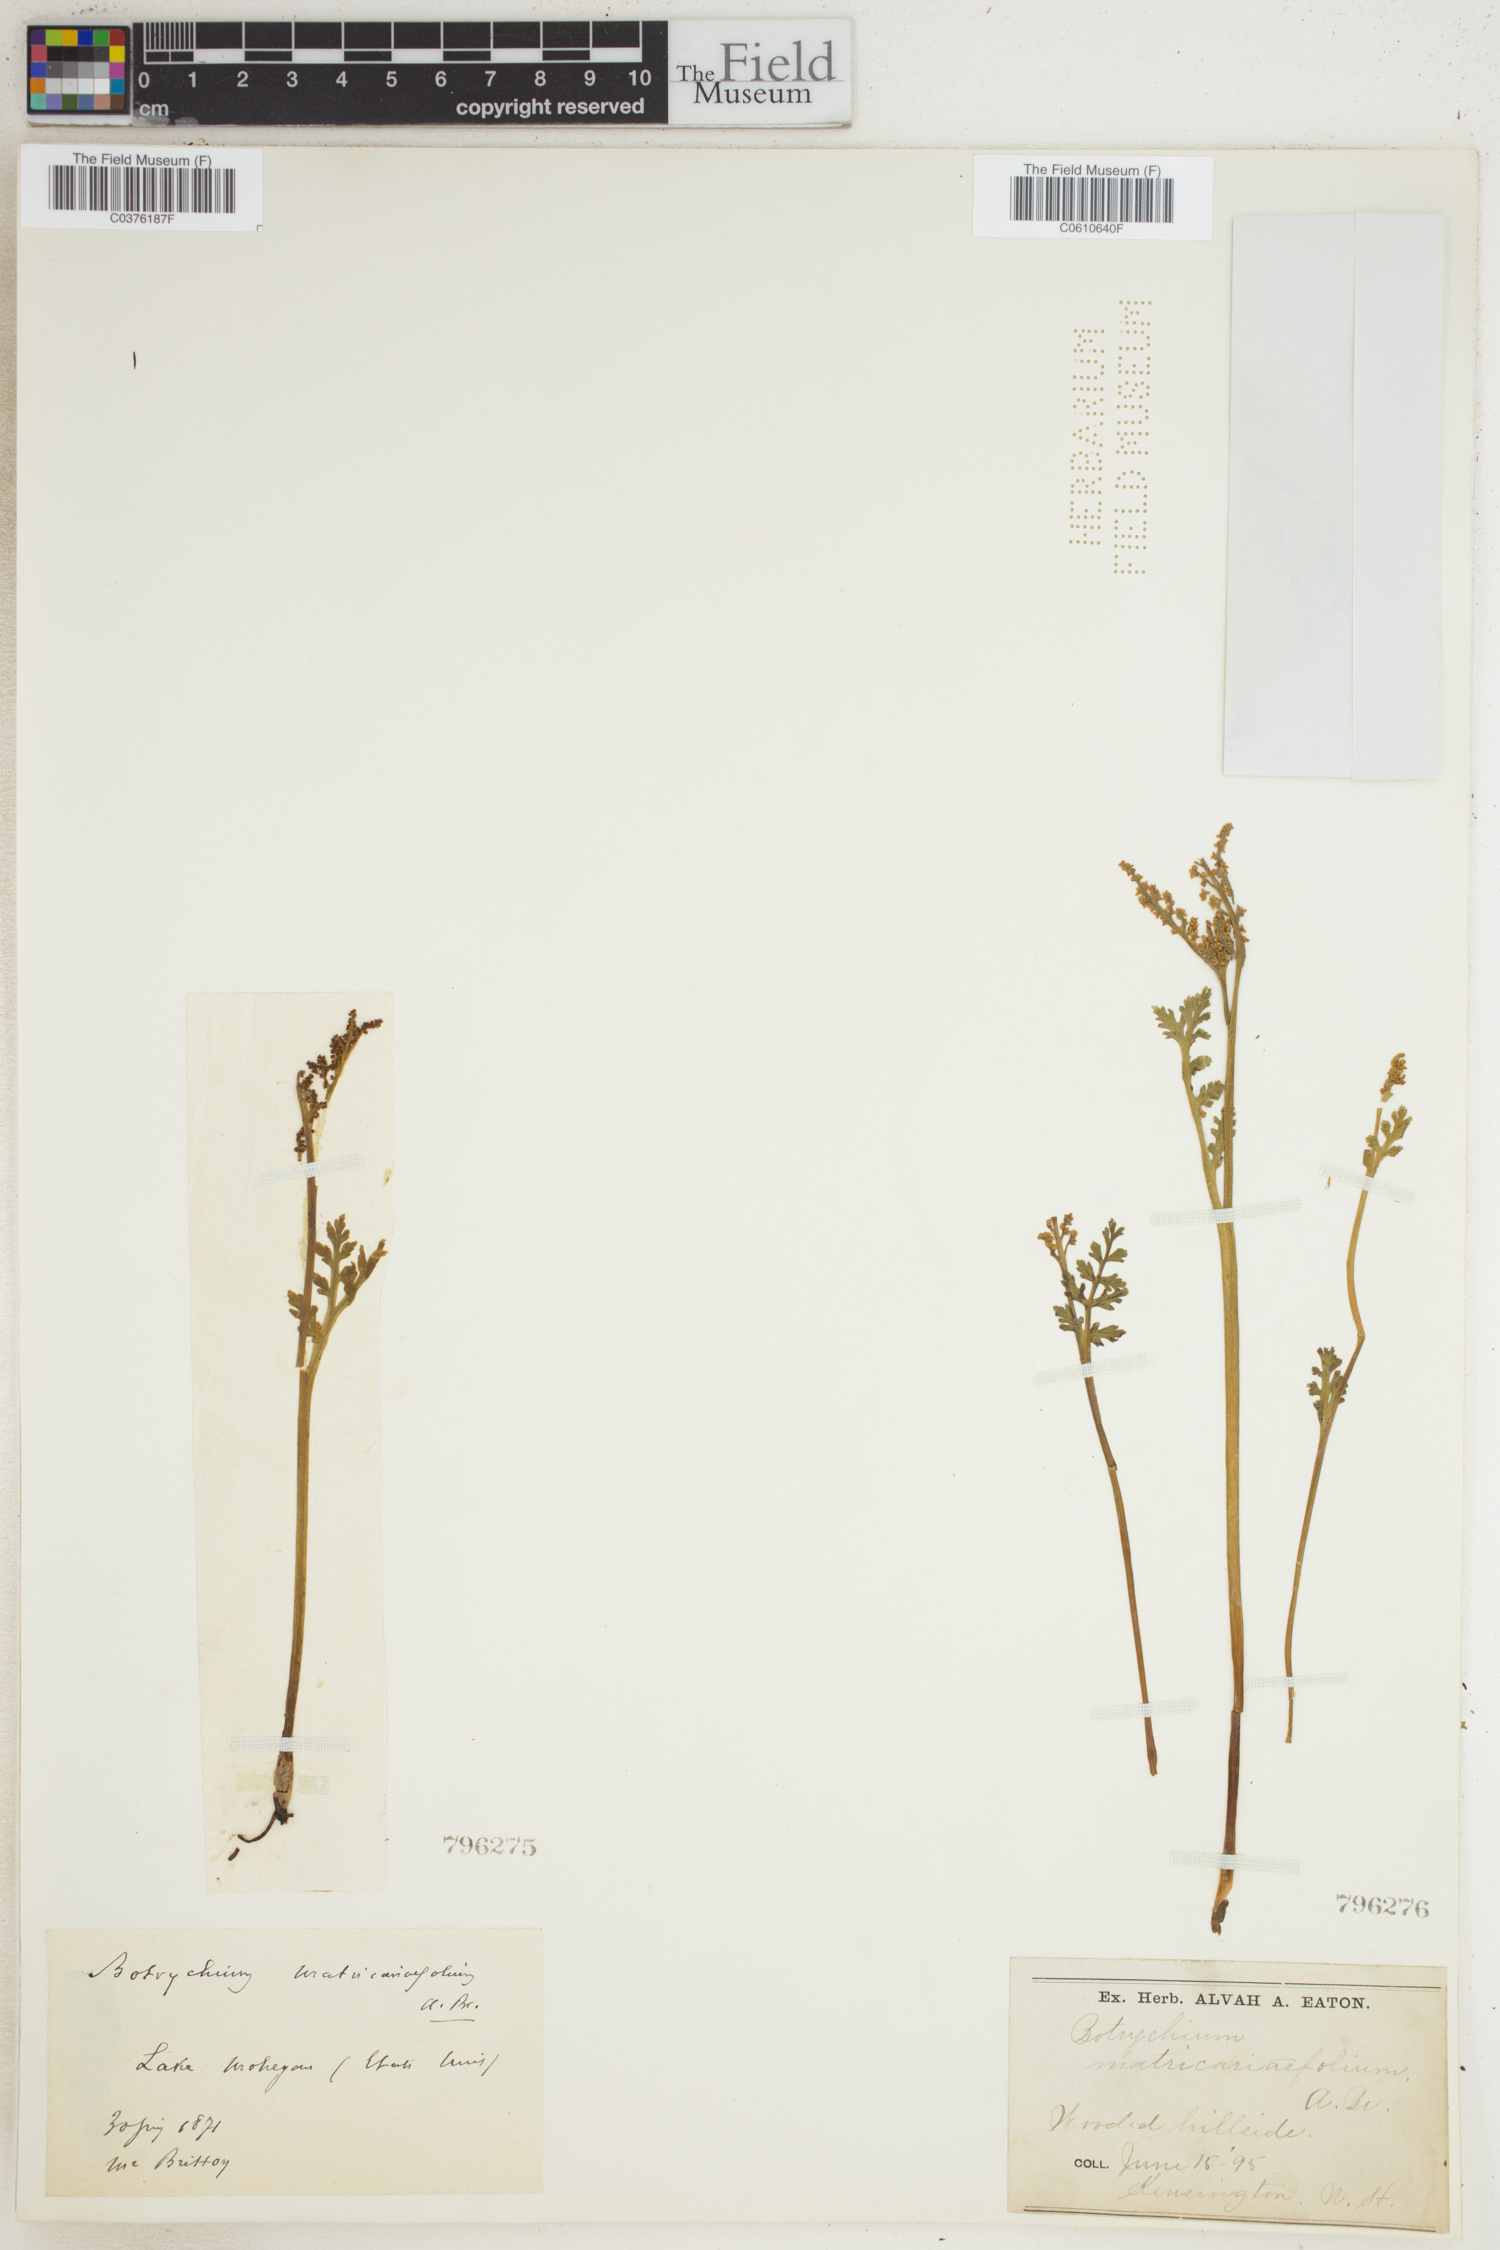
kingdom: Plantae
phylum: Tracheophyta
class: Polypodiopsida
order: Ophioglossales
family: Ophioglossaceae
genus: Botrychium
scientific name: Botrychium matricariifolium
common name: Branched moonwort
